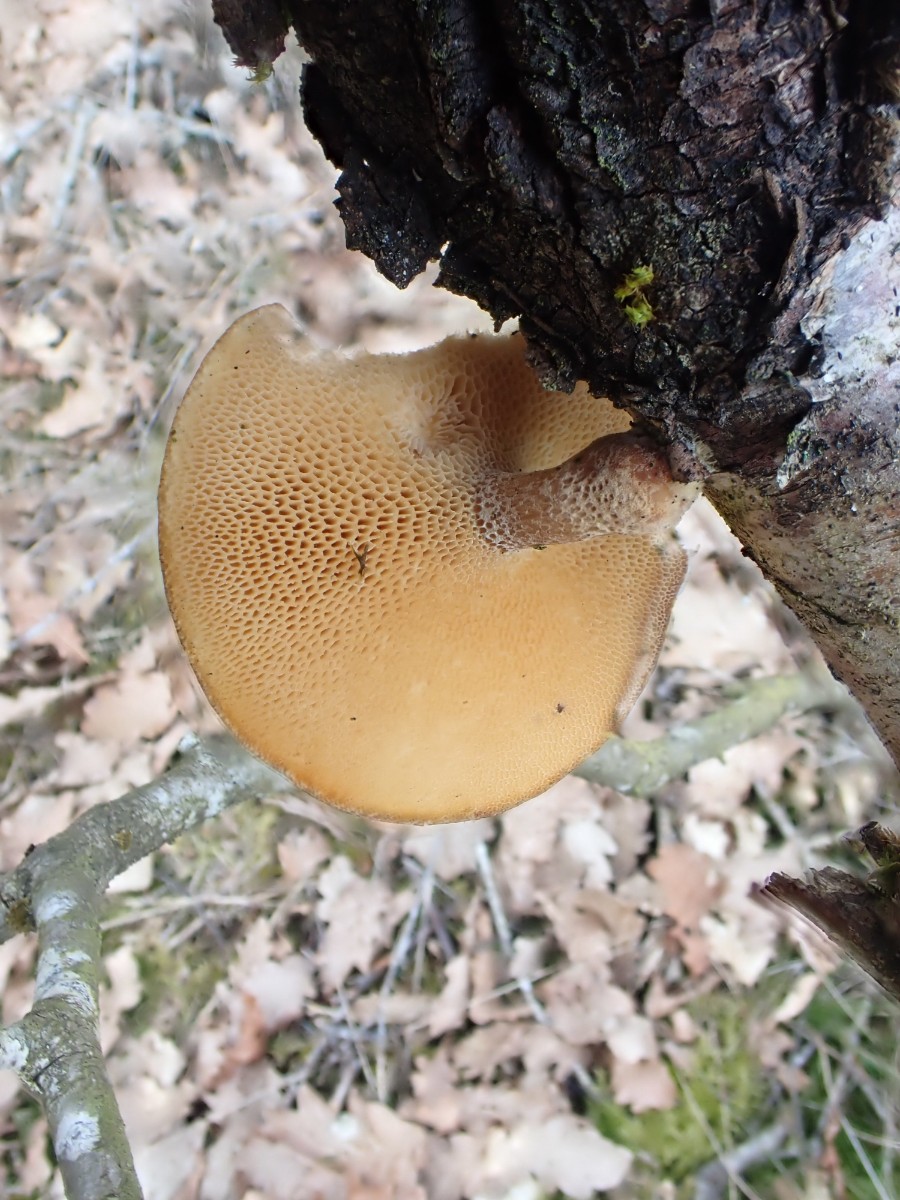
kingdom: Fungi
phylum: Basidiomycota
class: Agaricomycetes
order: Polyporales
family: Polyporaceae
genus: Lentinus
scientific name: Lentinus brumalis
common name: vinter-stilkporesvamp
